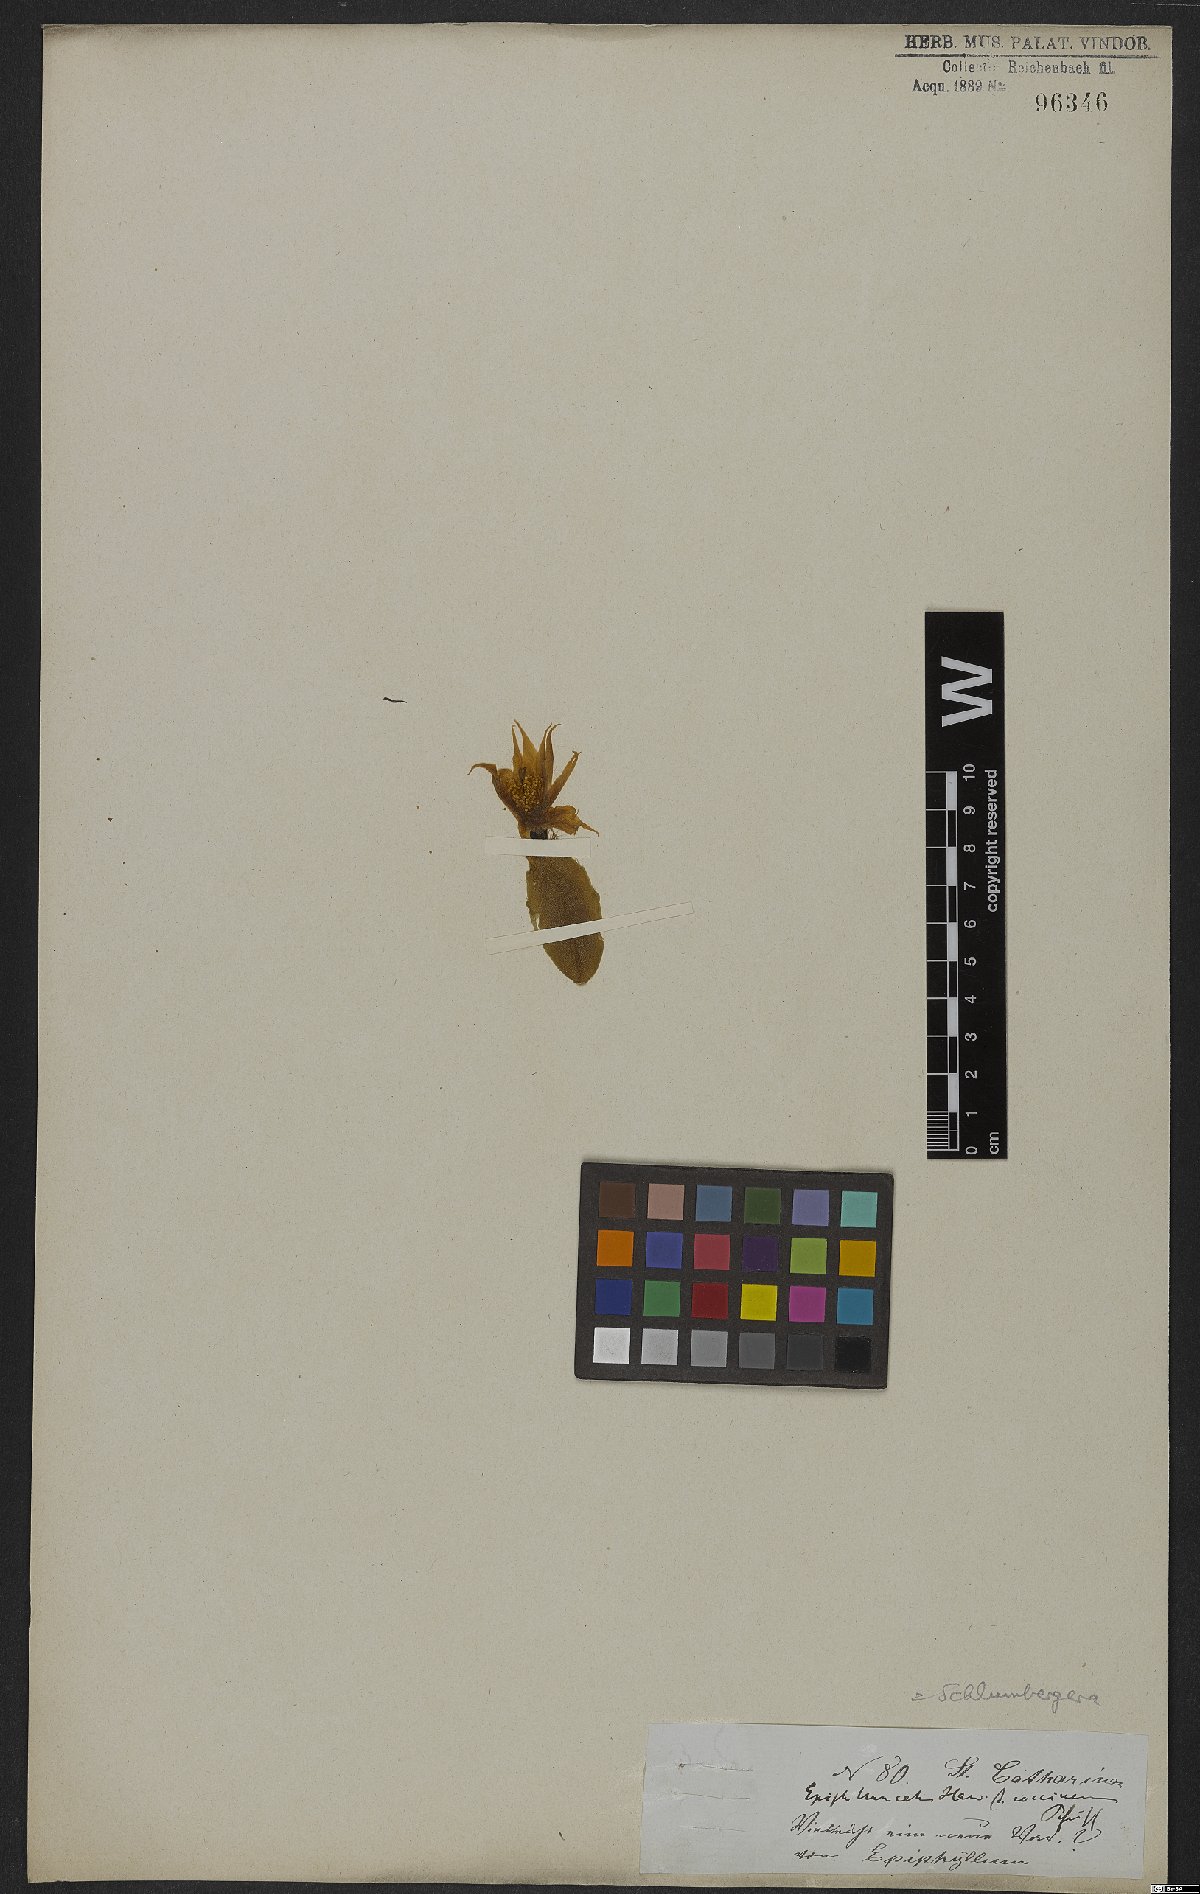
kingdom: Plantae
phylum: Tracheophyta
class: Magnoliopsida
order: Caryophyllales
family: Cactaceae
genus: Schlumbergera
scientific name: Schlumbergera truncata
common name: Thanksgiving cactus
